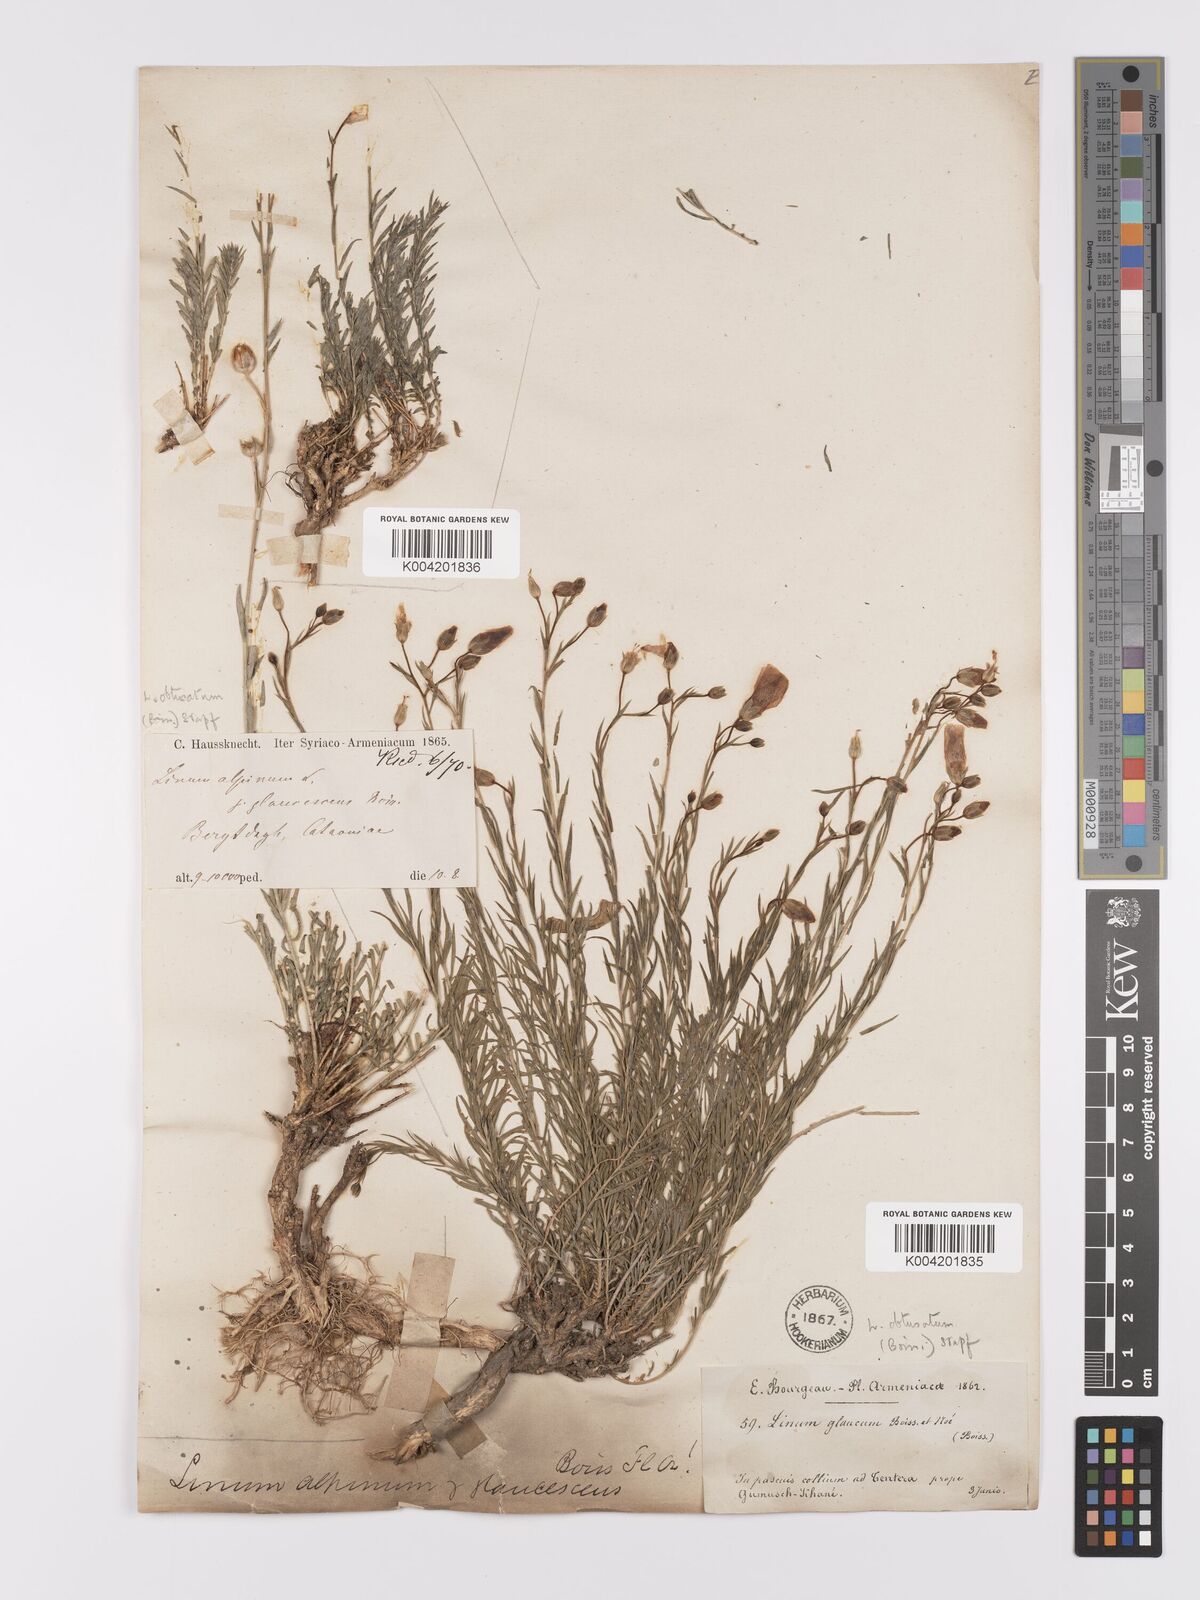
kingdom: Plantae
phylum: Tracheophyta
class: Magnoliopsida
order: Malpighiales
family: Linaceae
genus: Linum
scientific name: Linum obtusatum
